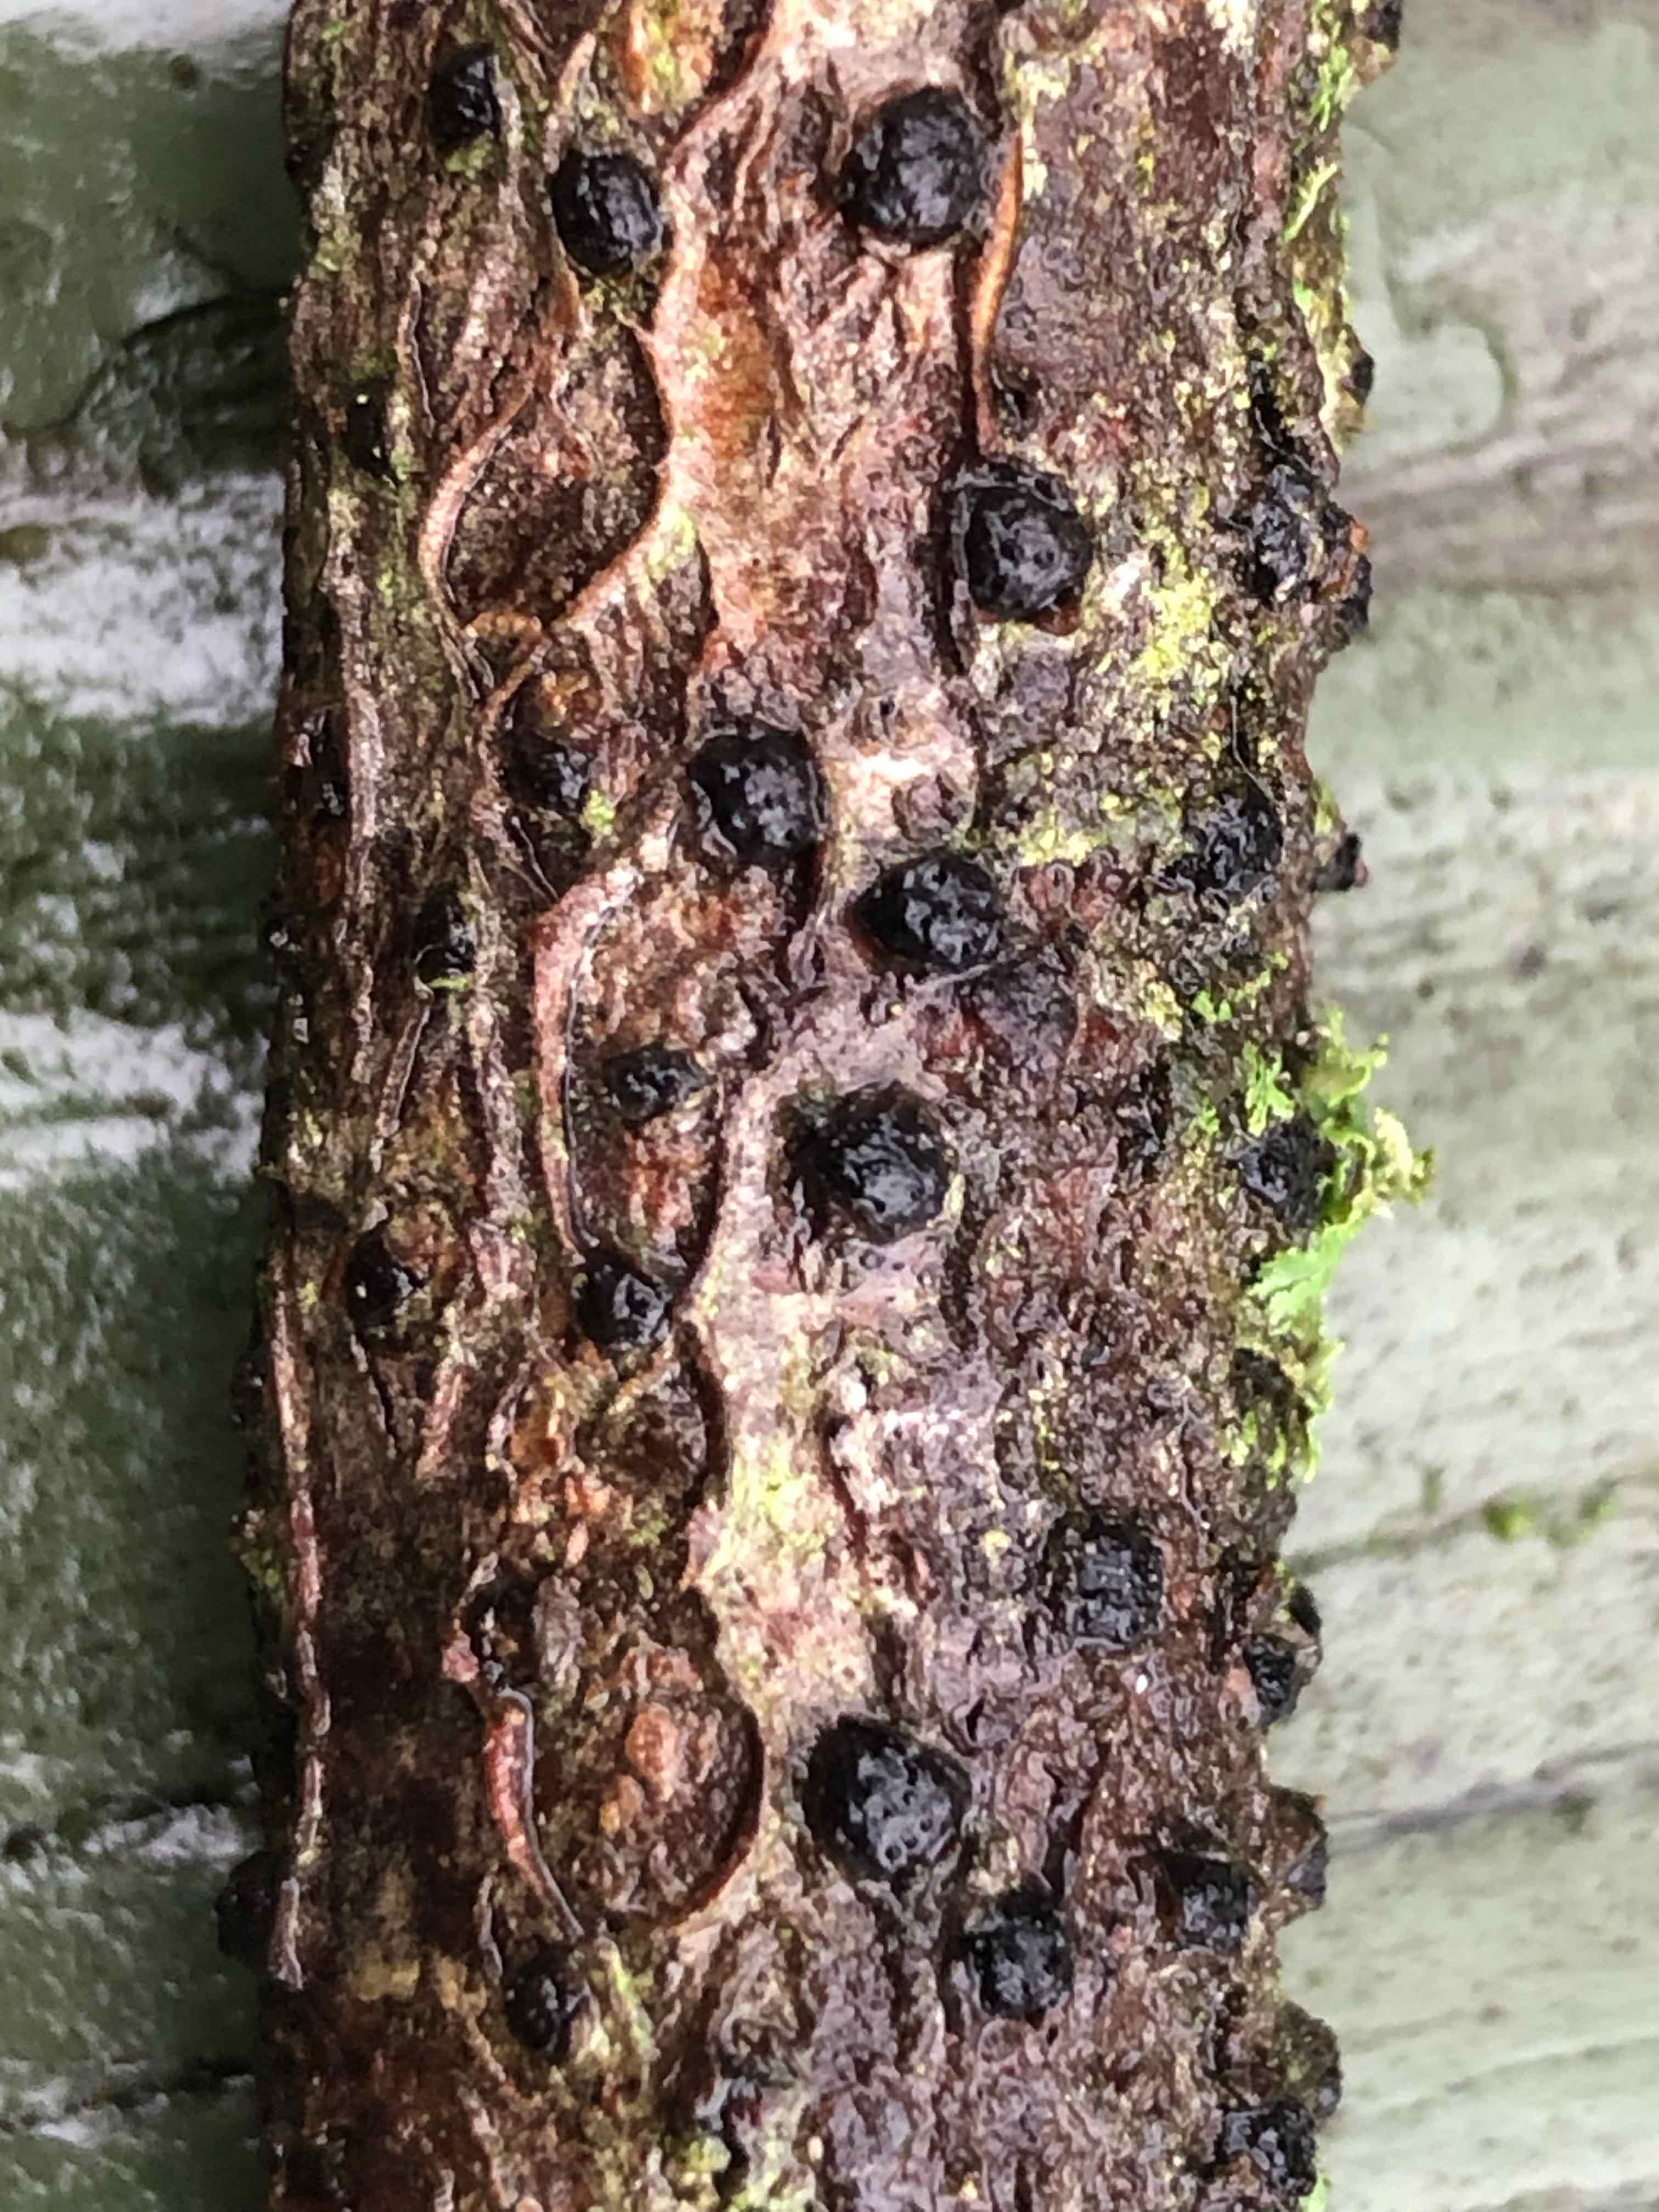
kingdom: Fungi
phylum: Ascomycota
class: Sordariomycetes
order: Xylariales
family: Diatrypaceae
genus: Diatrypella
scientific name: Diatrypella quercina
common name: ege-kulskorpe
